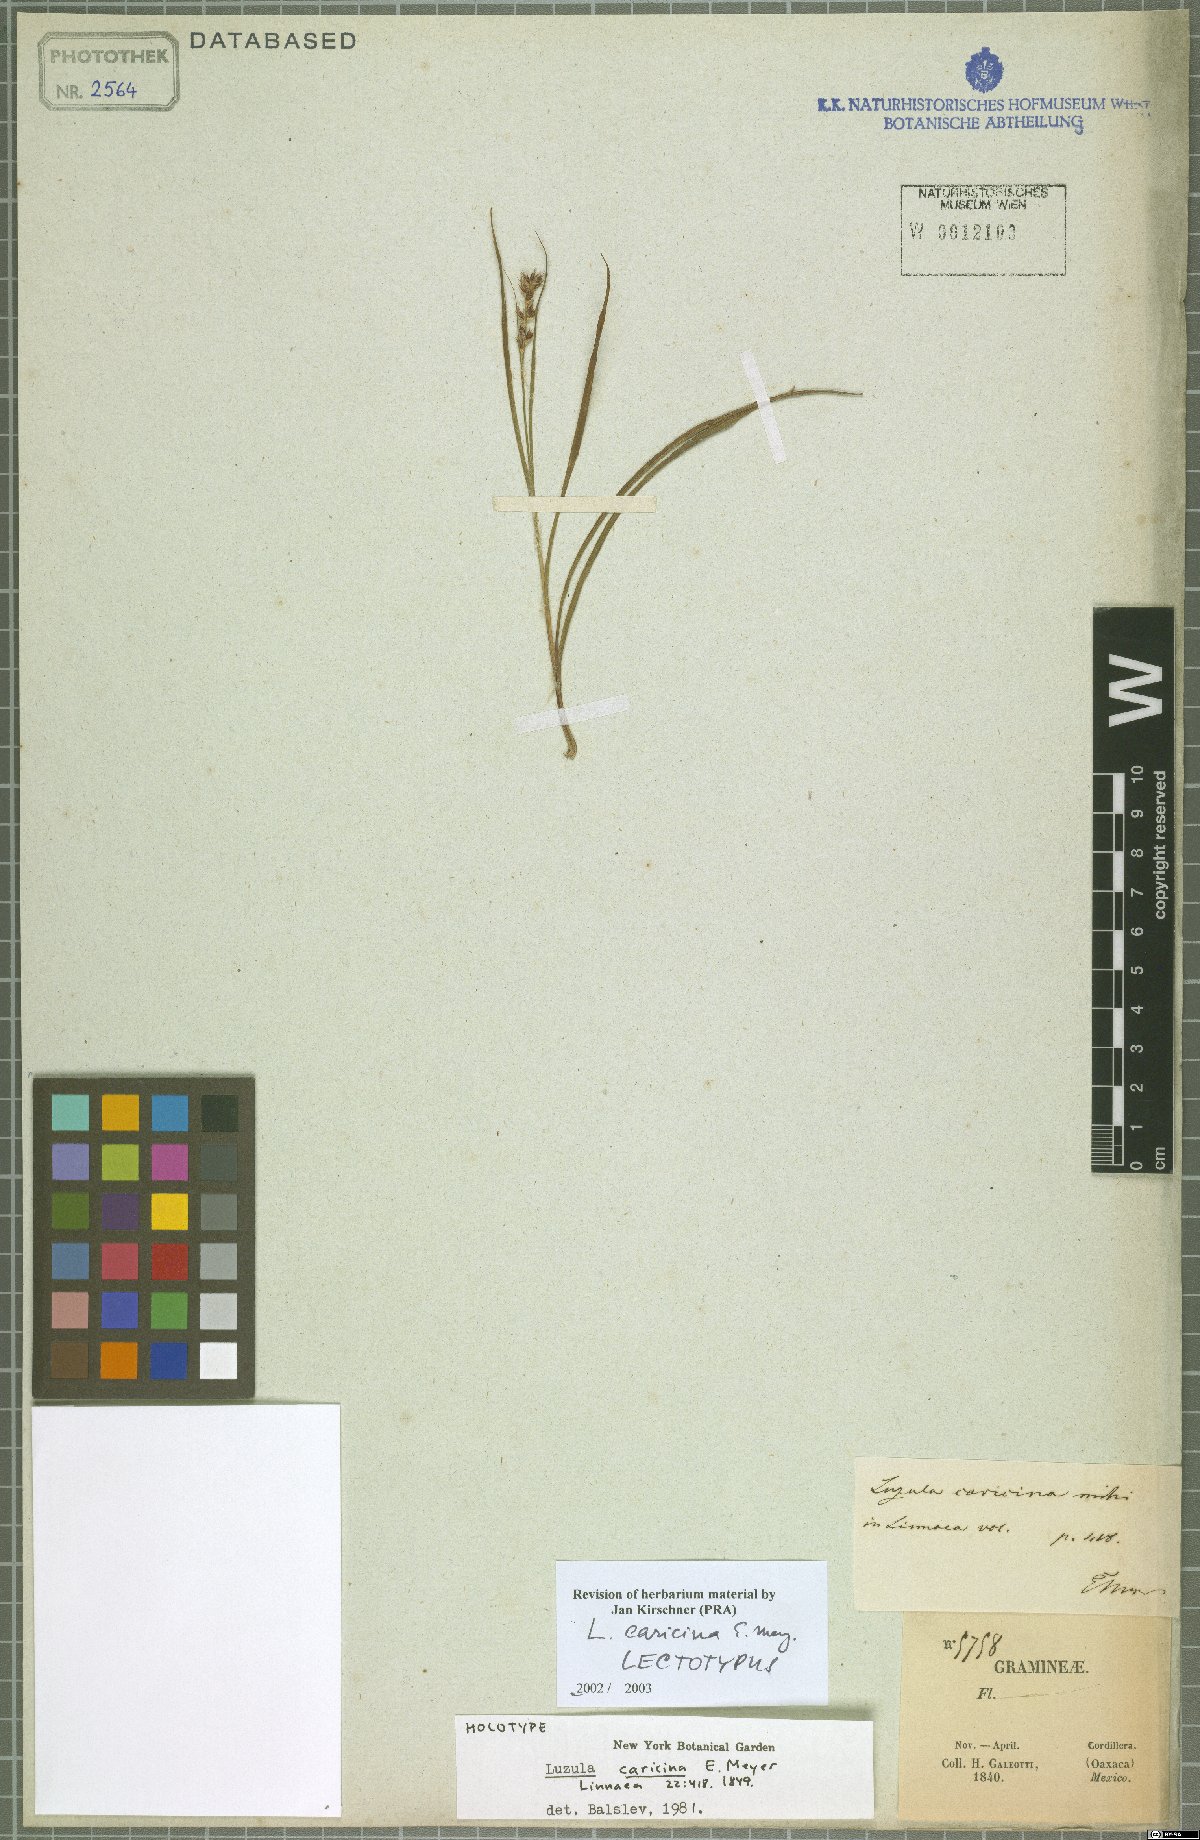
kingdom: Plantae
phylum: Tracheophyta
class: Liliopsida
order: Poales
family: Juncaceae
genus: Luzula
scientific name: Luzula caricina
